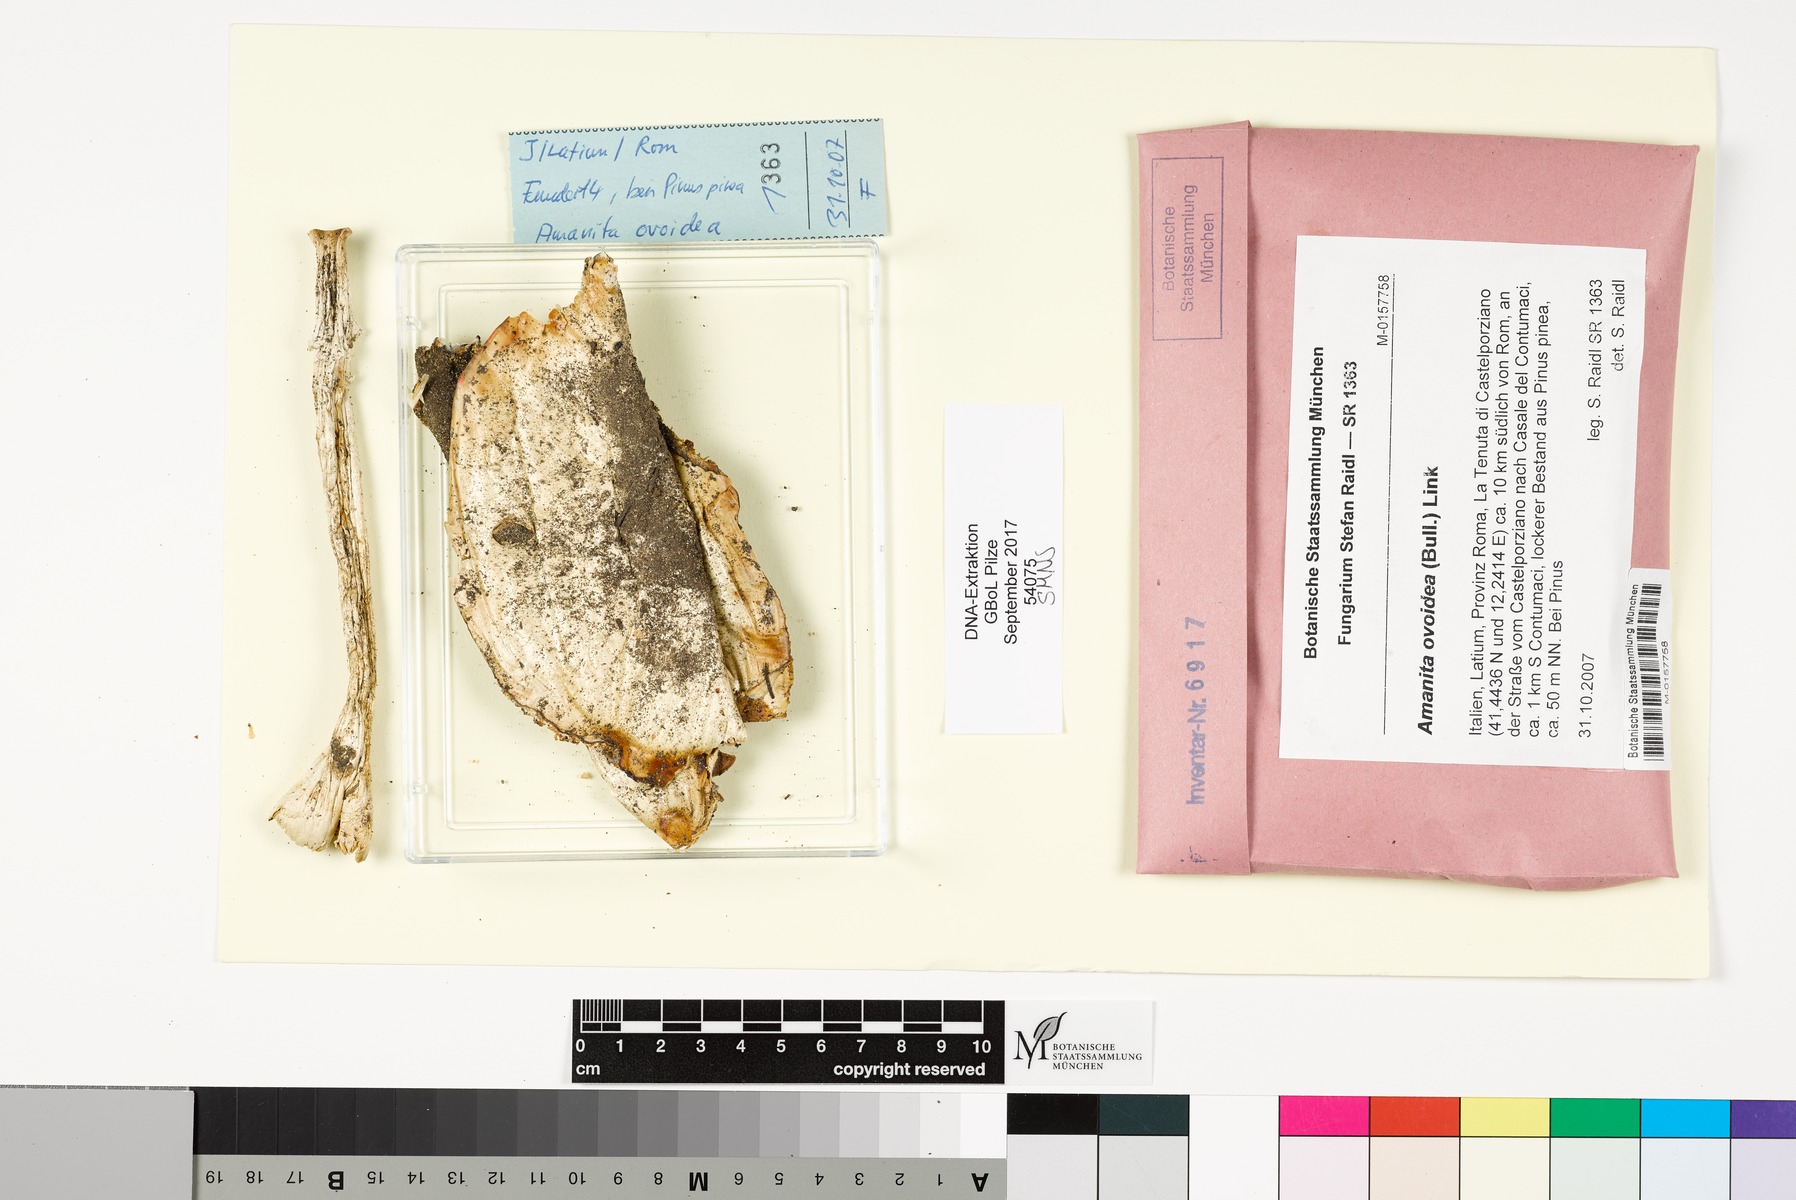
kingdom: Fungi
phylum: Basidiomycota
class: Agaricomycetes
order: Agaricales
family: Amanitaceae
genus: Amanita
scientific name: Amanita ovoidea
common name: Bearded amanita
